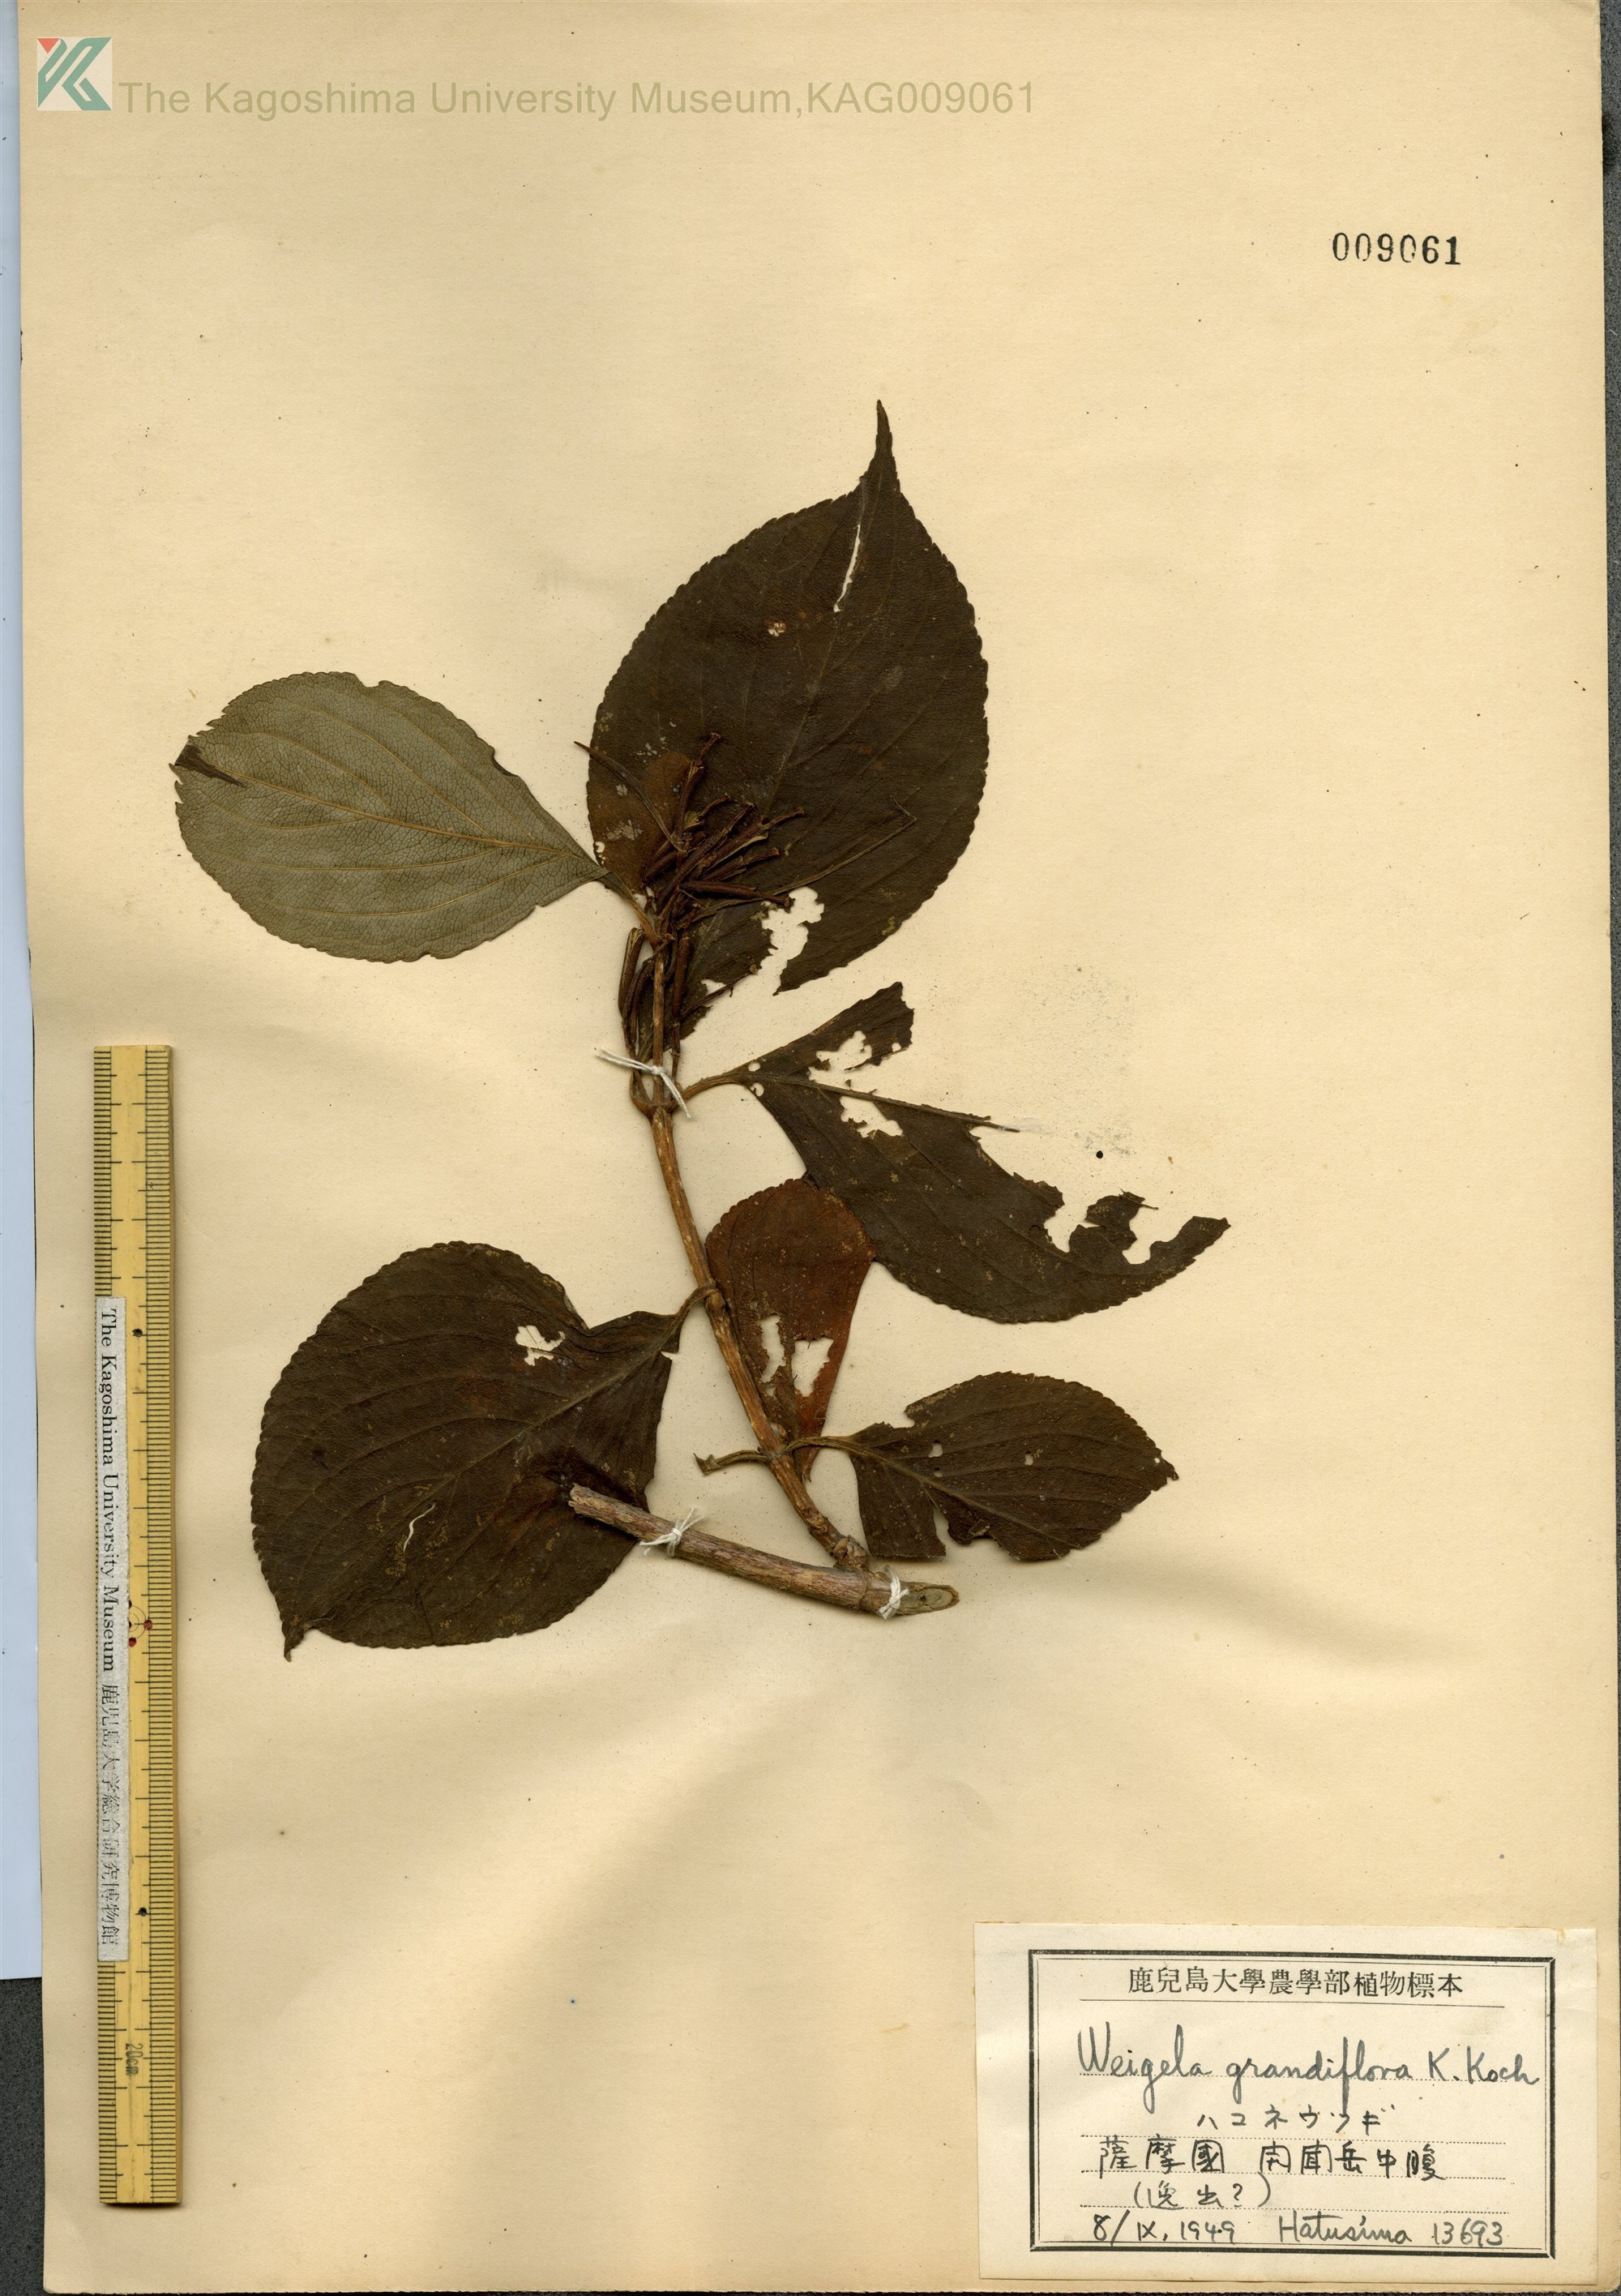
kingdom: Plantae
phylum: Tracheophyta
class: Magnoliopsida
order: Dipsacales
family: Caprifoliaceae
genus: Weigela
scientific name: Weigela
